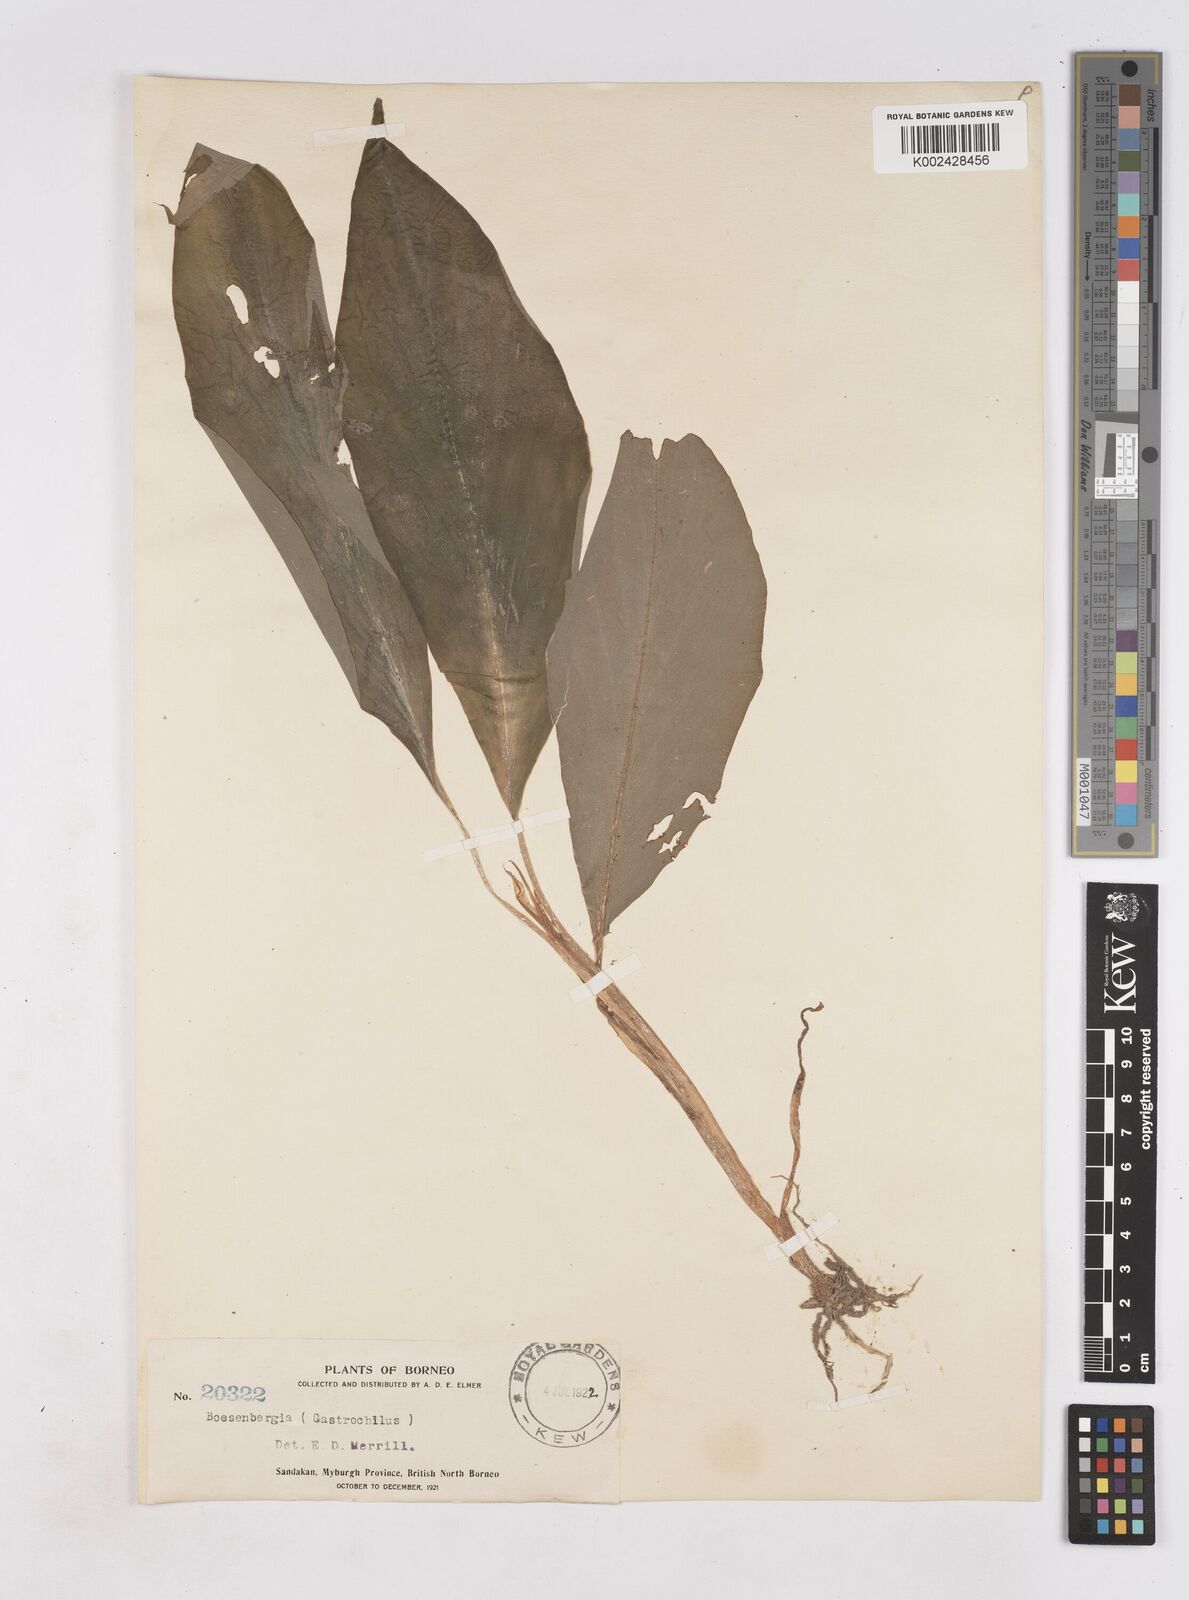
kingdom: Plantae
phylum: Tracheophyta
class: Liliopsida
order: Zingiberales
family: Zingiberaceae
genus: Boesenbergia
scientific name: Boesenbergia pulchella
